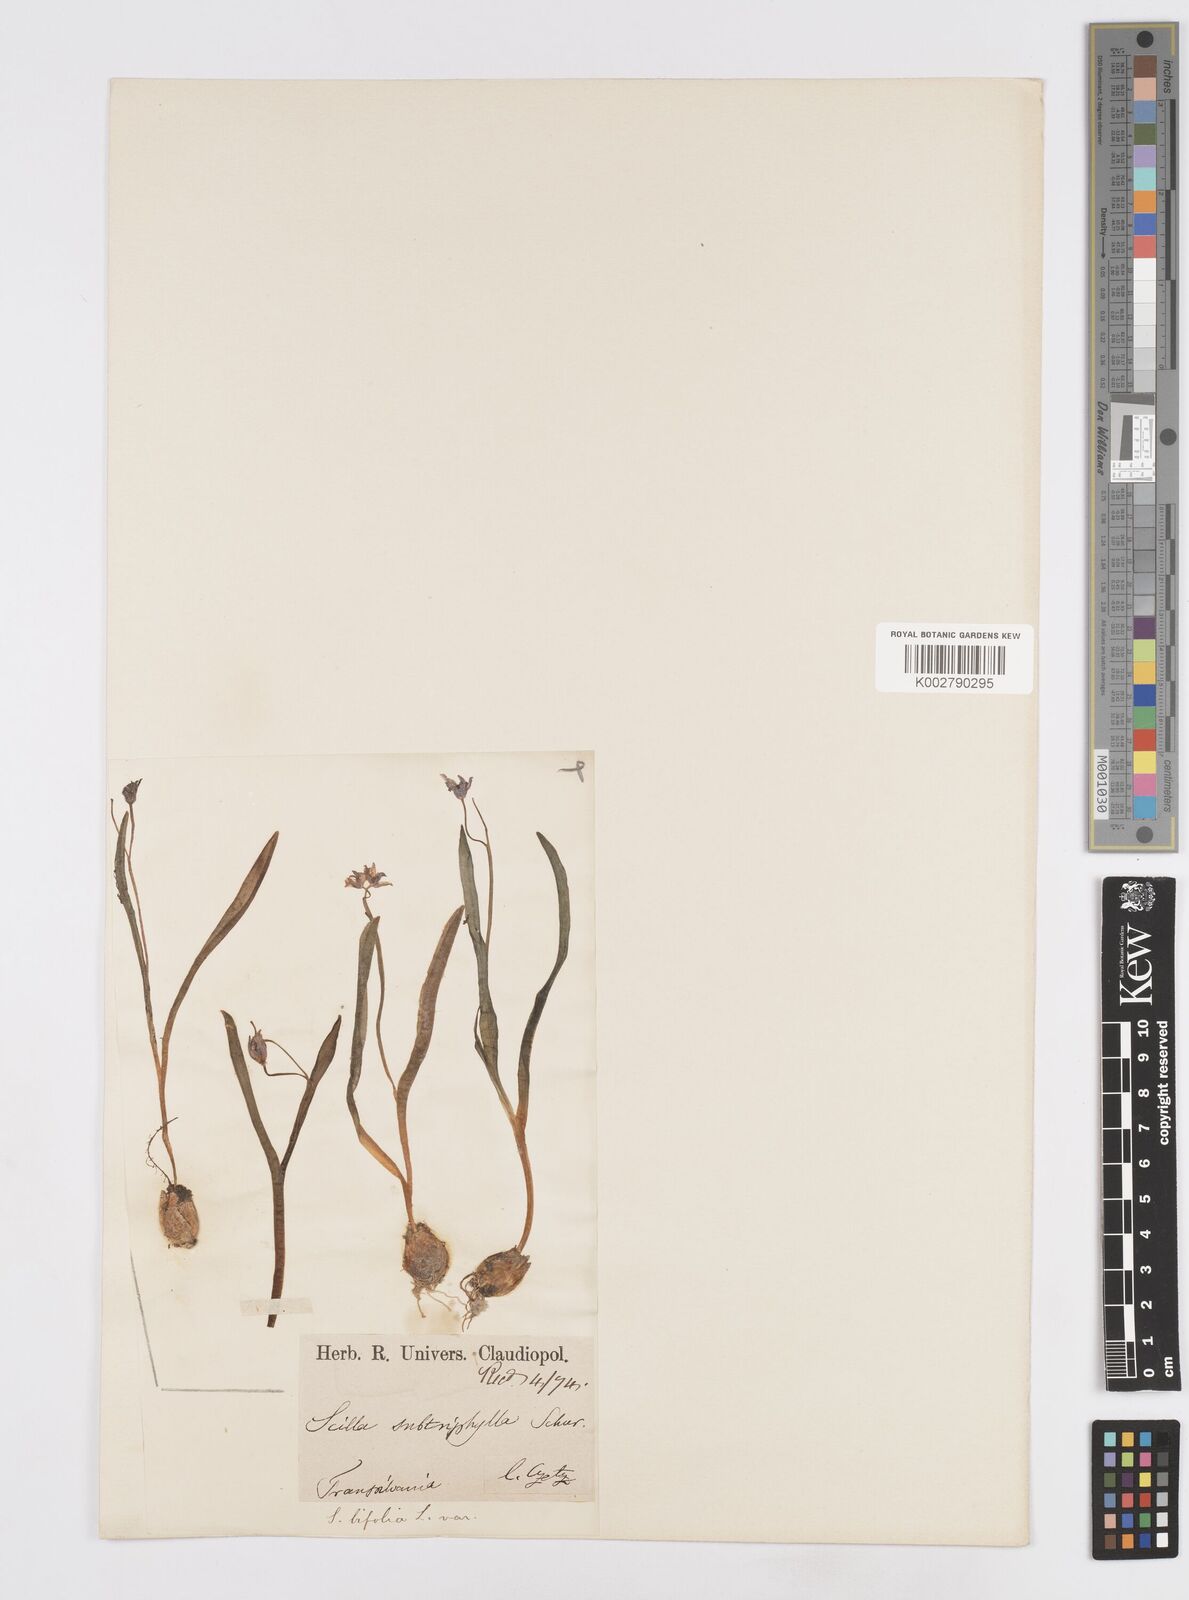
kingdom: Plantae
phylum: Tracheophyta
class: Liliopsida
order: Asparagales
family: Asparagaceae
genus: Scilla
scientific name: Scilla nivalis
